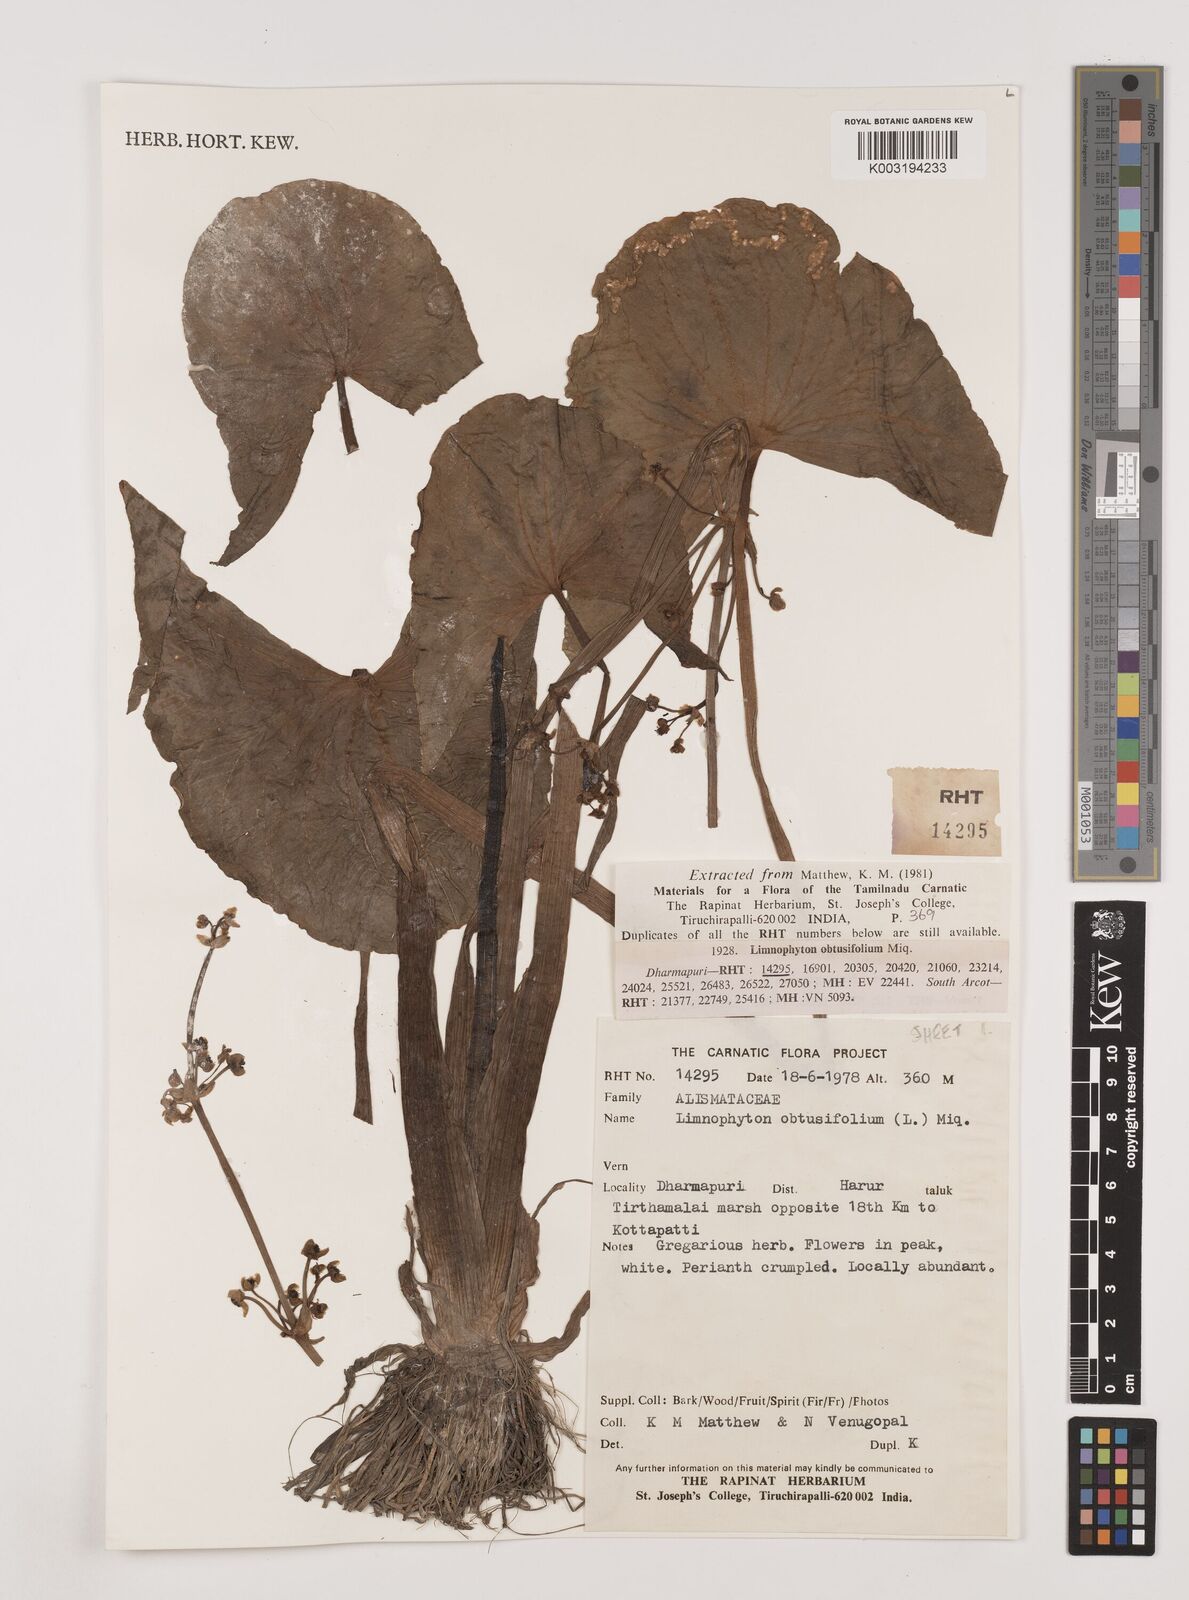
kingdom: Plantae
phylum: Tracheophyta
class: Liliopsida
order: Alismatales
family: Alismataceae
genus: Limnophyton
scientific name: Limnophyton obtusifolium
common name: Arrow head
